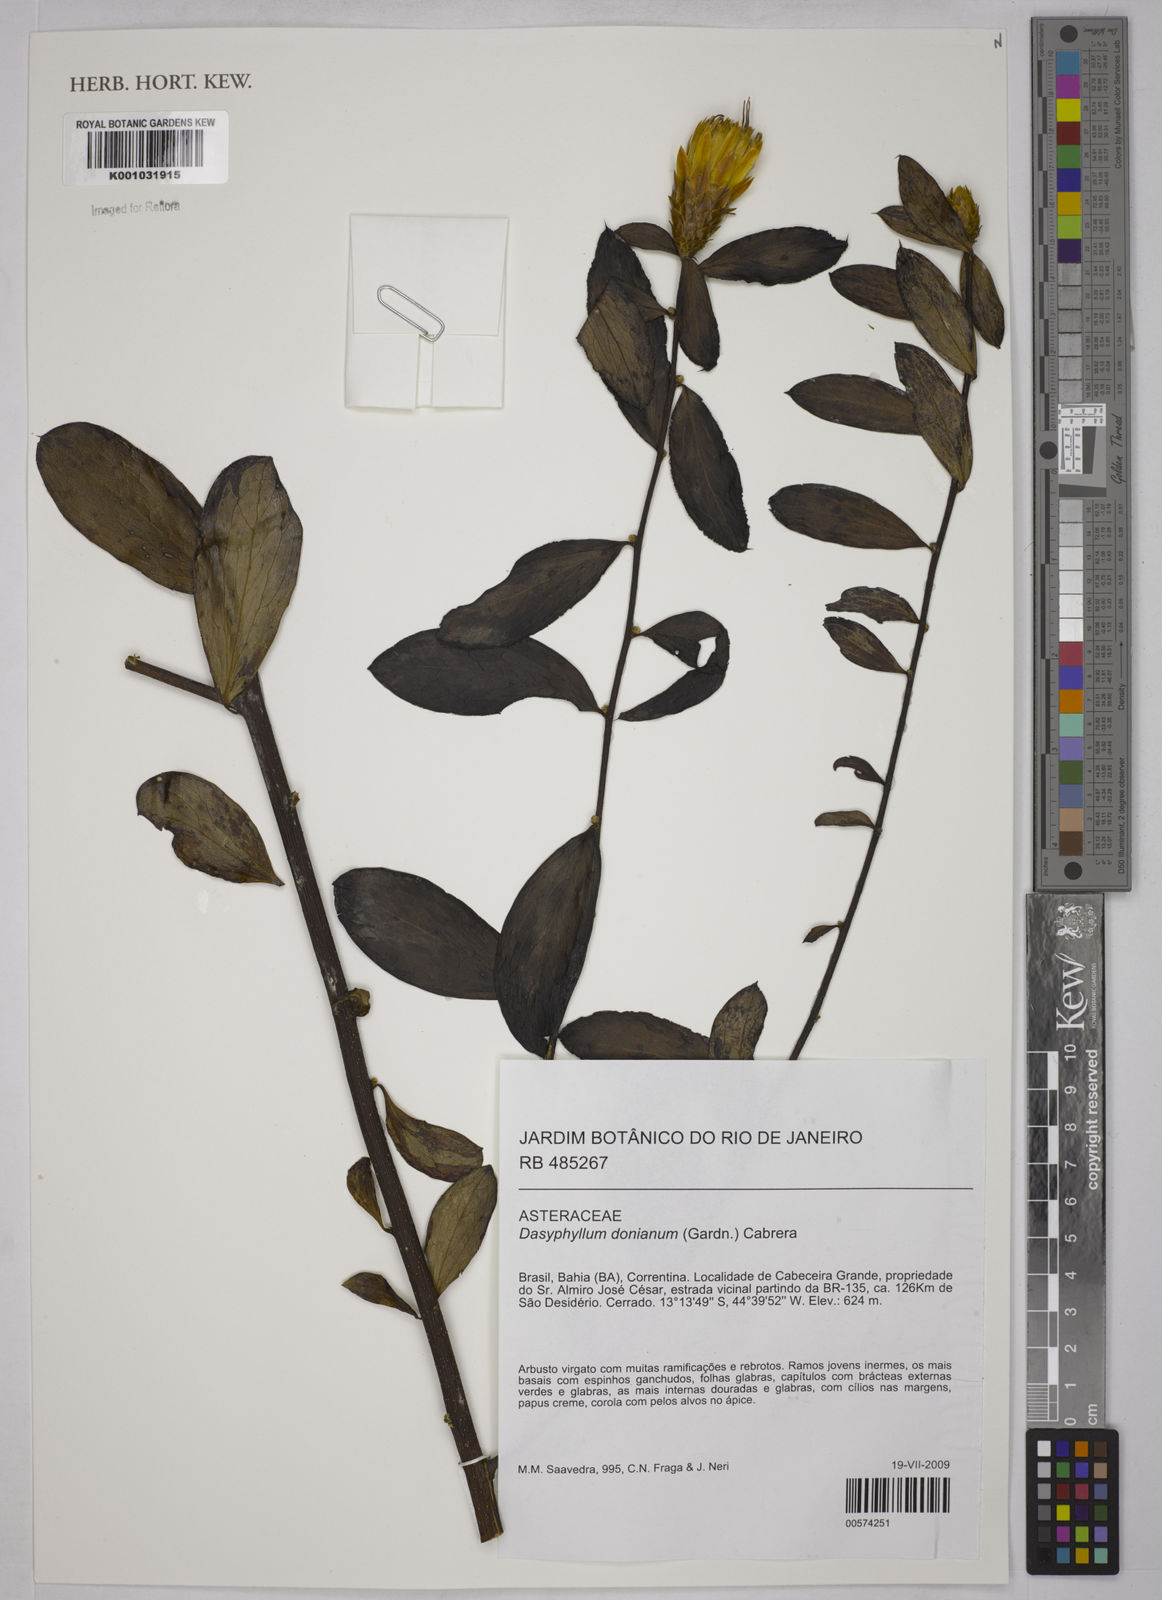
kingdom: Plantae
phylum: Tracheophyta
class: Magnoliopsida
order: Asterales
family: Asteraceae
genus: Dasyphyllum
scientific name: Dasyphyllum donianum
